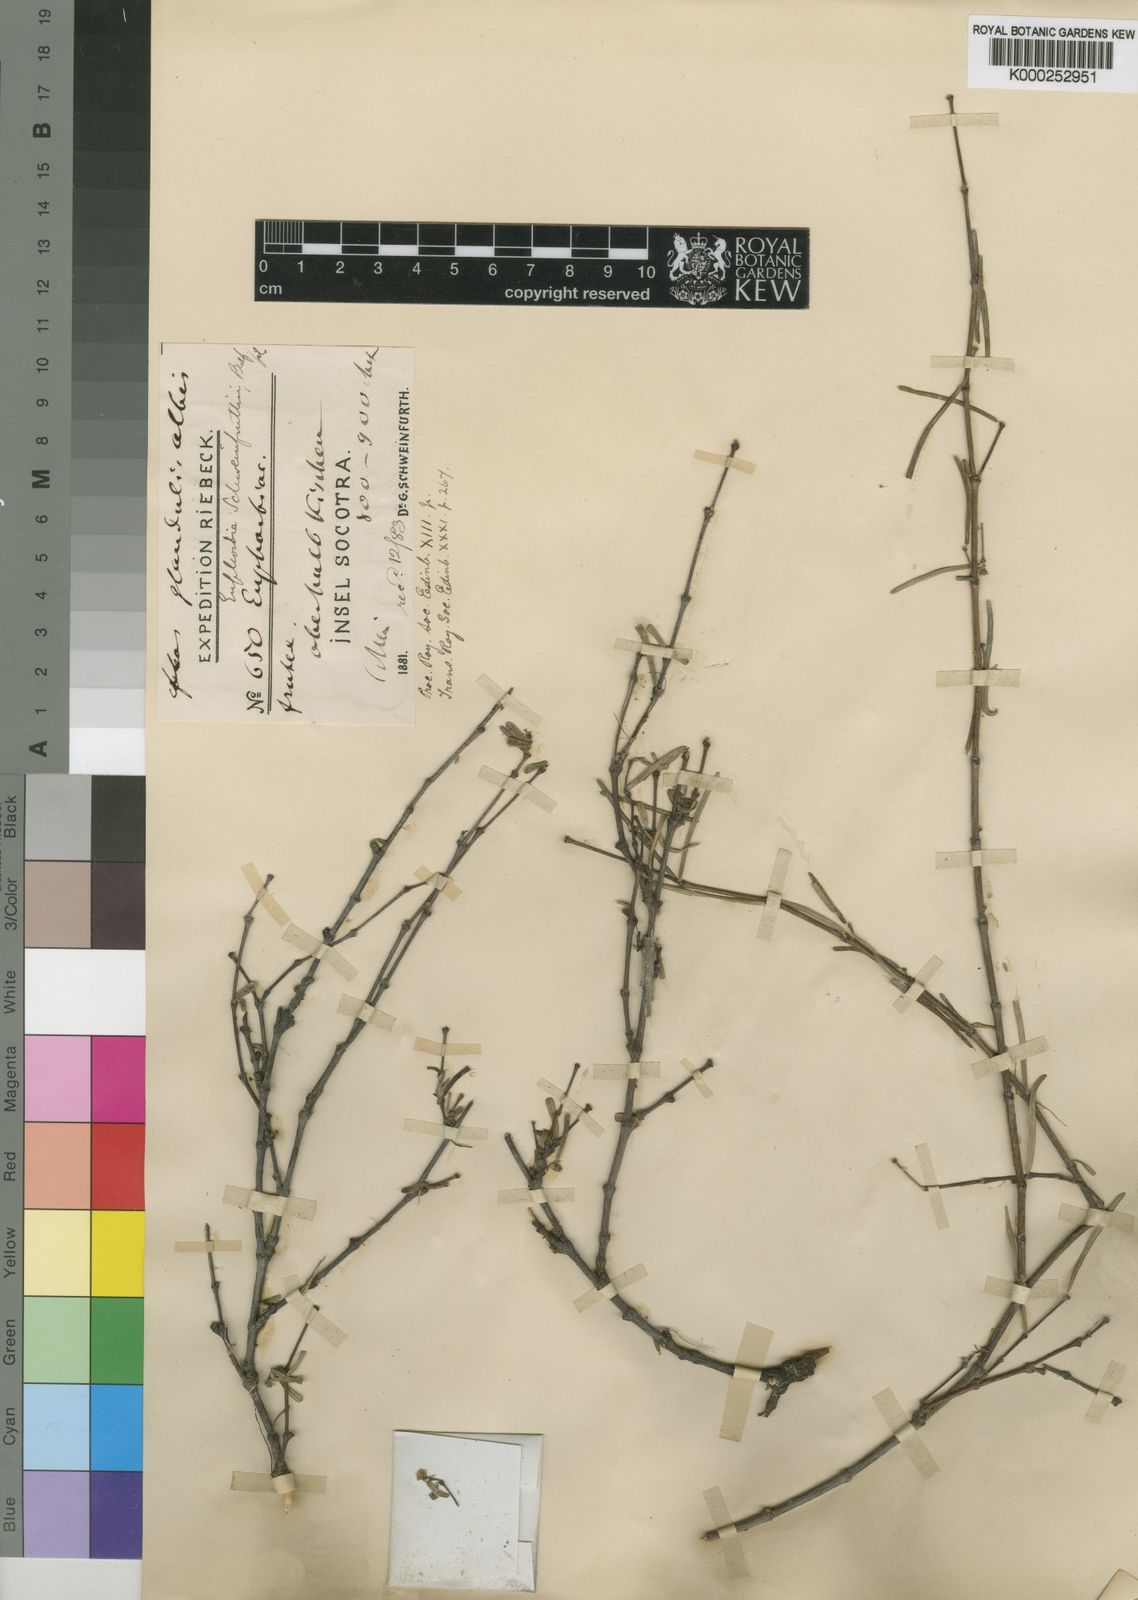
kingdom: Plantae
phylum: Tracheophyta
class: Magnoliopsida
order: Malpighiales
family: Euphorbiaceae
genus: Euphorbia
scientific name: Euphorbia schweinfurthii
